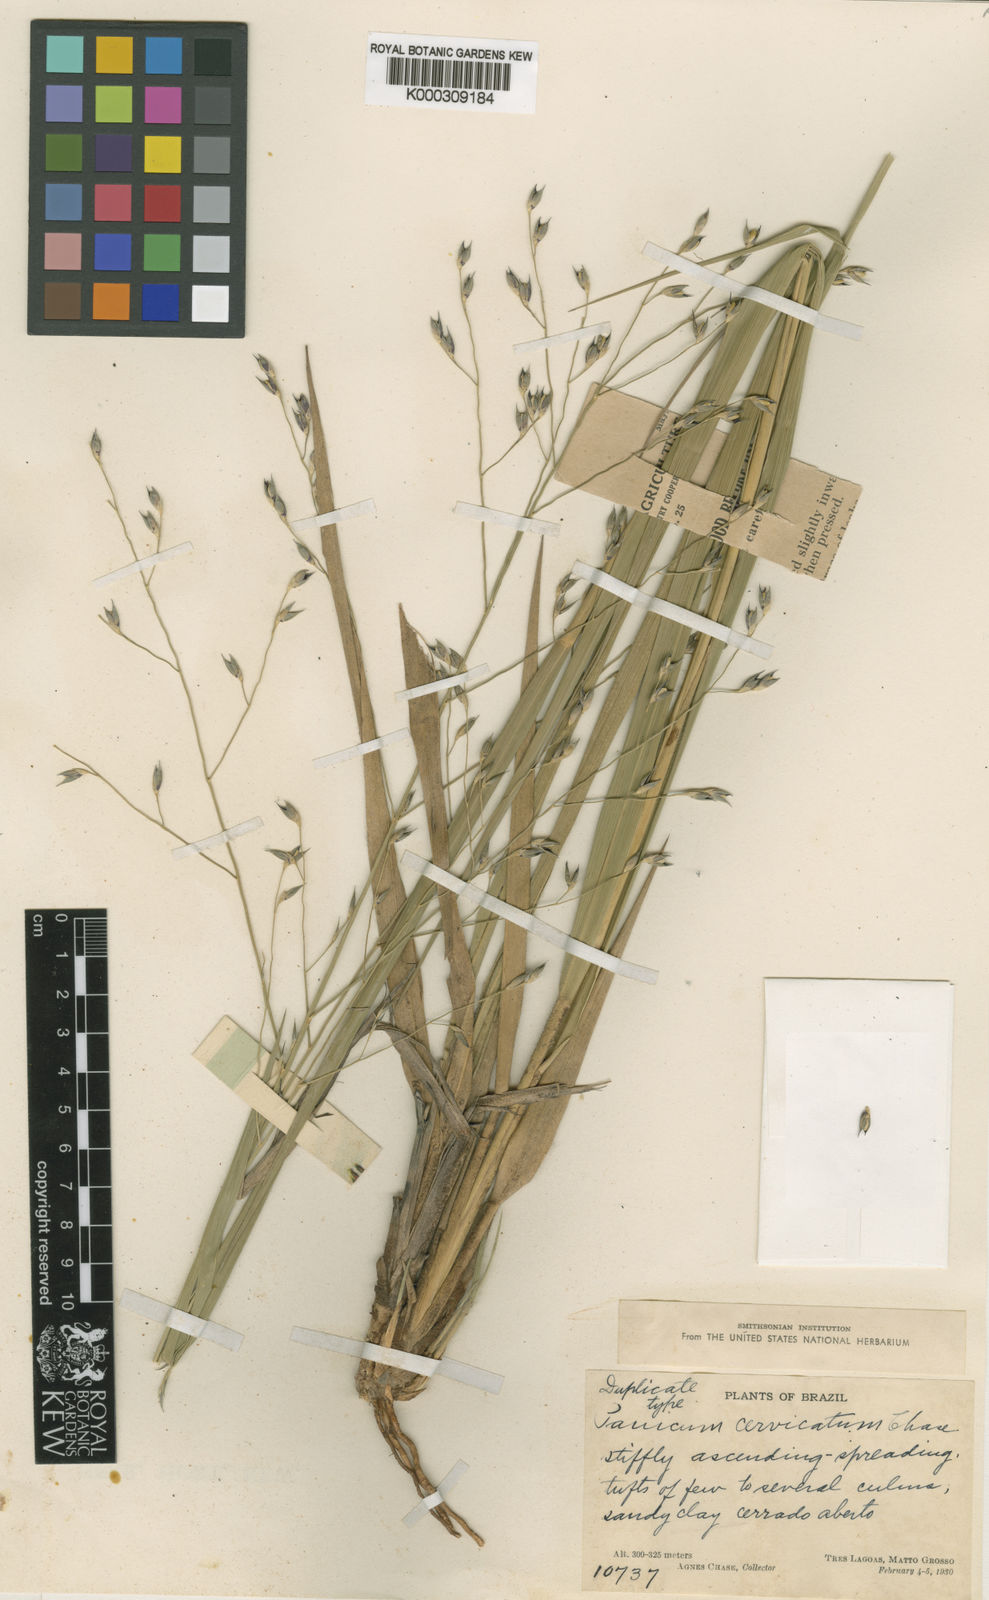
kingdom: Plantae
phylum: Tracheophyta
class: Liliopsida
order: Poales
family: Poaceae
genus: Sacciolepis
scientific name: Sacciolepis curvata
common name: Forest hood grass
